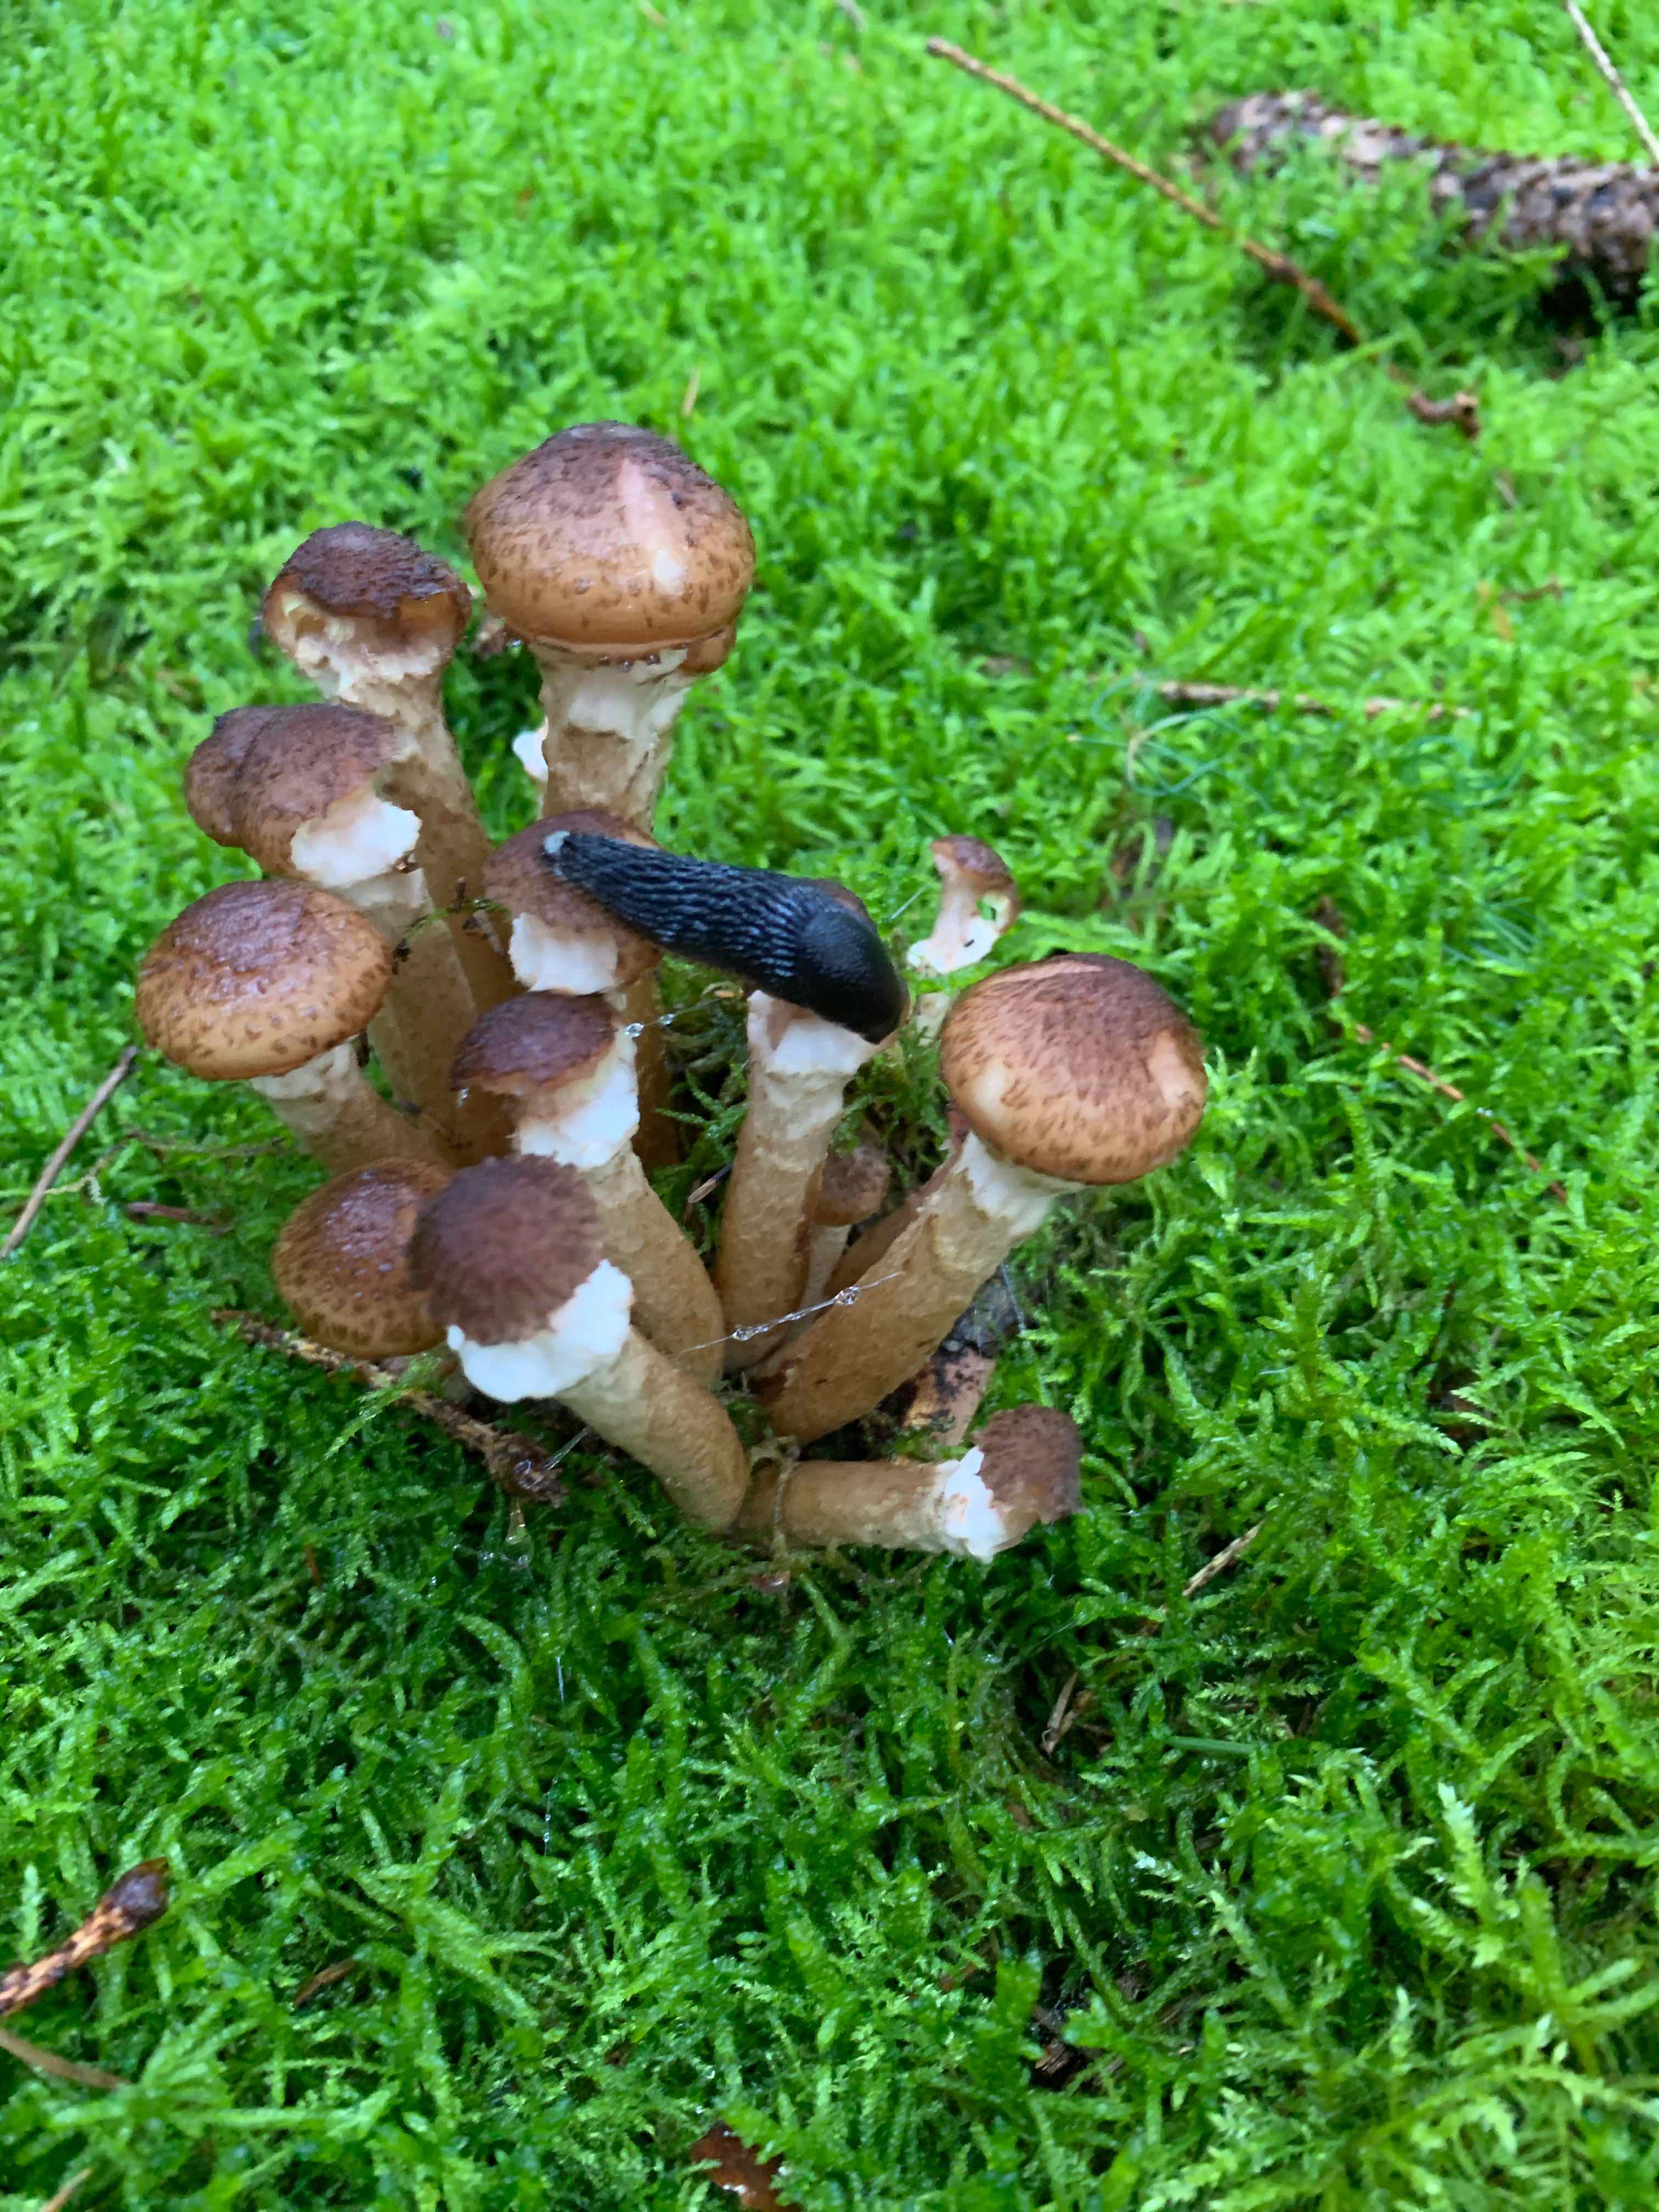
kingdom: Fungi
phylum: Basidiomycota
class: Agaricomycetes
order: Agaricales
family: Physalacriaceae
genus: Armillaria
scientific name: Armillaria lutea
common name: køllestokket honningsvamp
